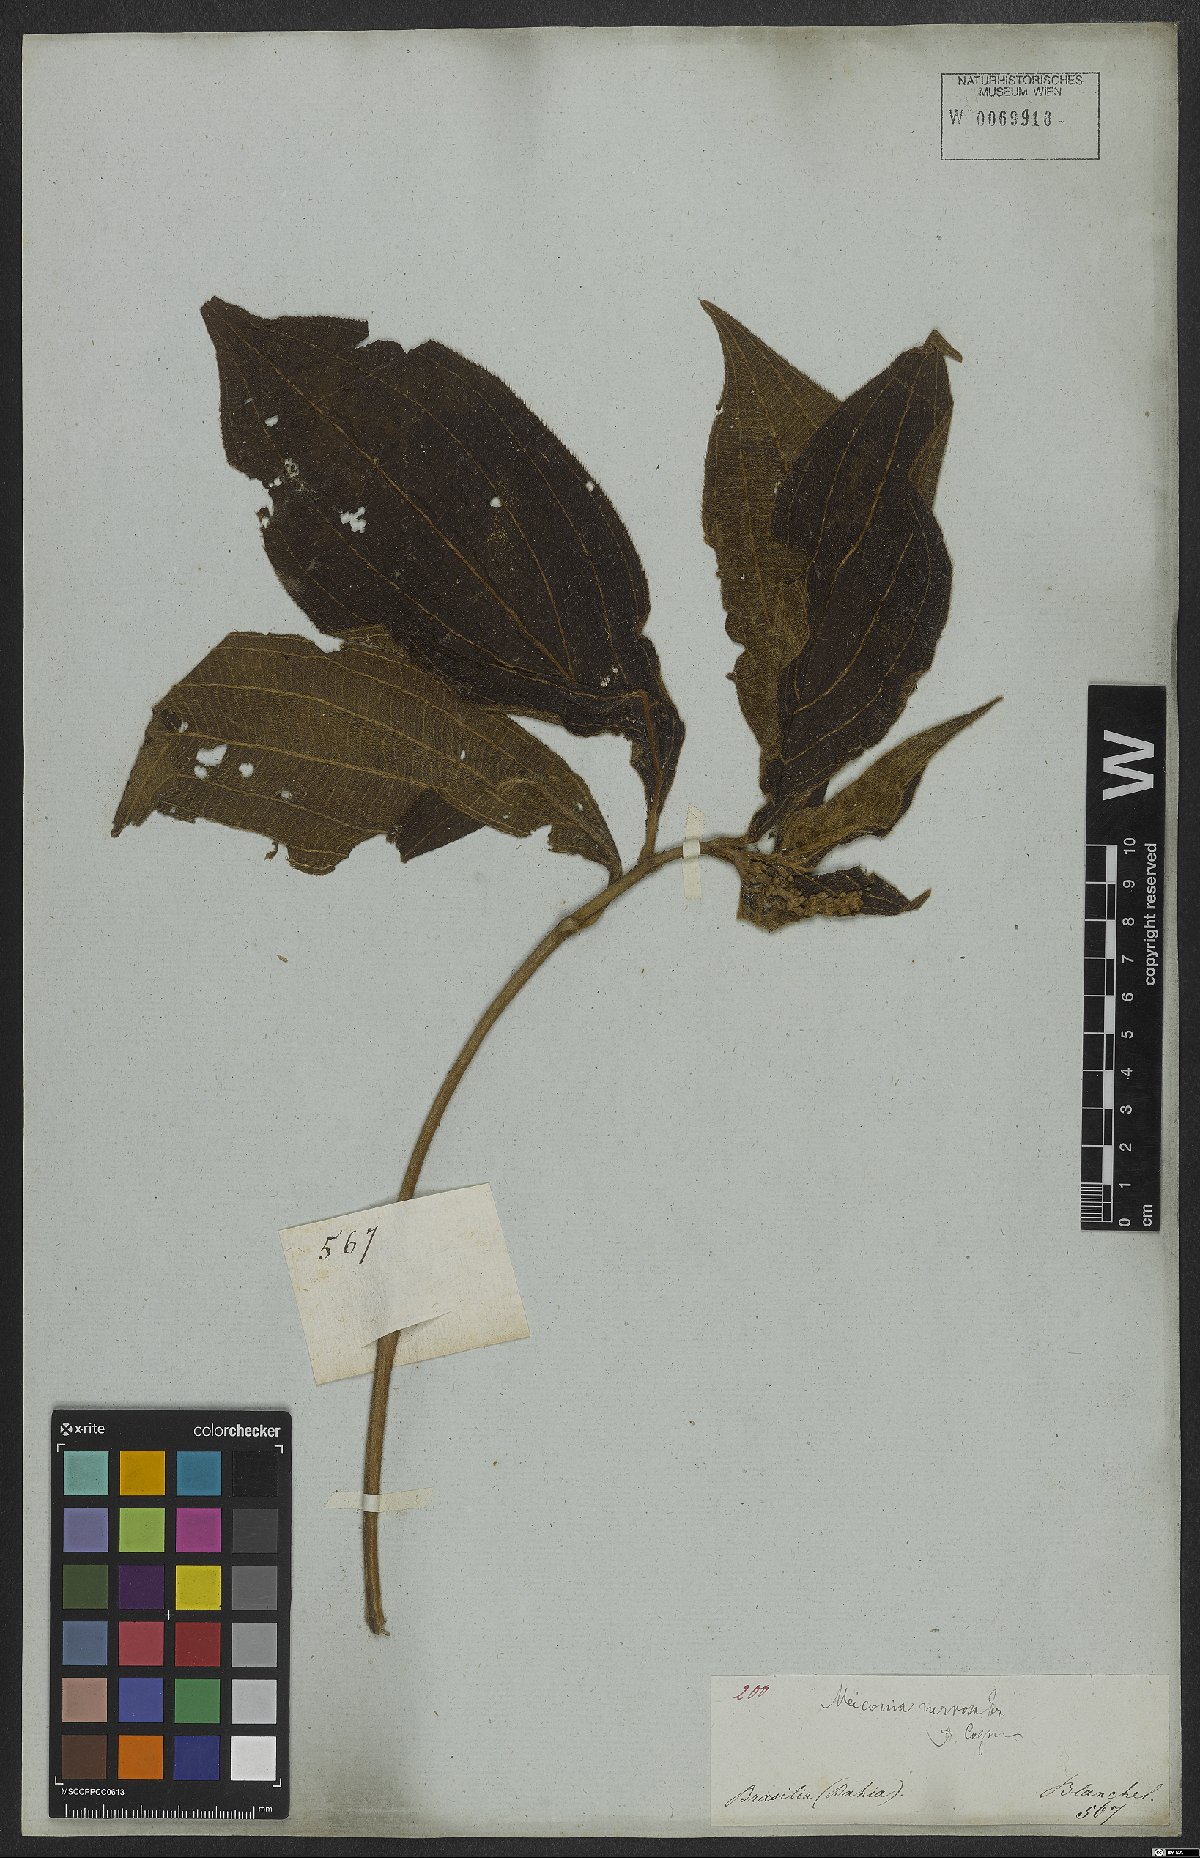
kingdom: Plantae
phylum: Tracheophyta
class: Magnoliopsida
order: Myrtales
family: Melastomataceae
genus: Miconia
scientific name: Miconia nervosa
